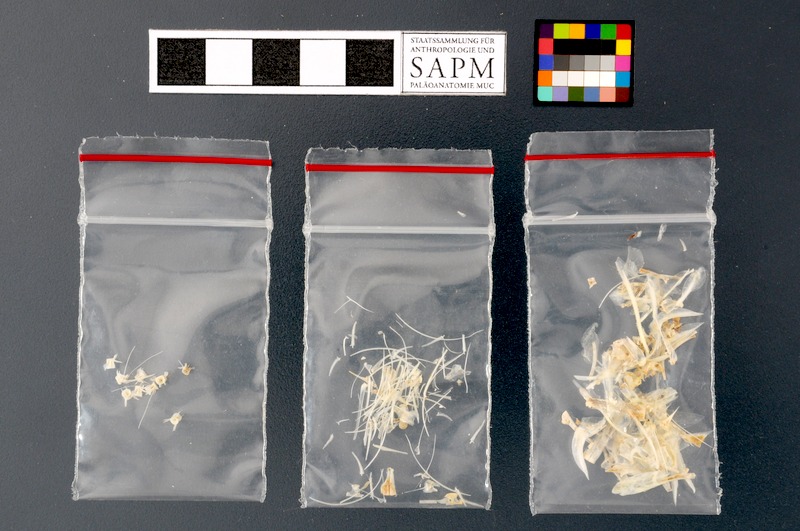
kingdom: Animalia
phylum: Chordata
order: Clupeiformes
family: Engraulidae
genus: Stolephorus
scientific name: Stolephorus
